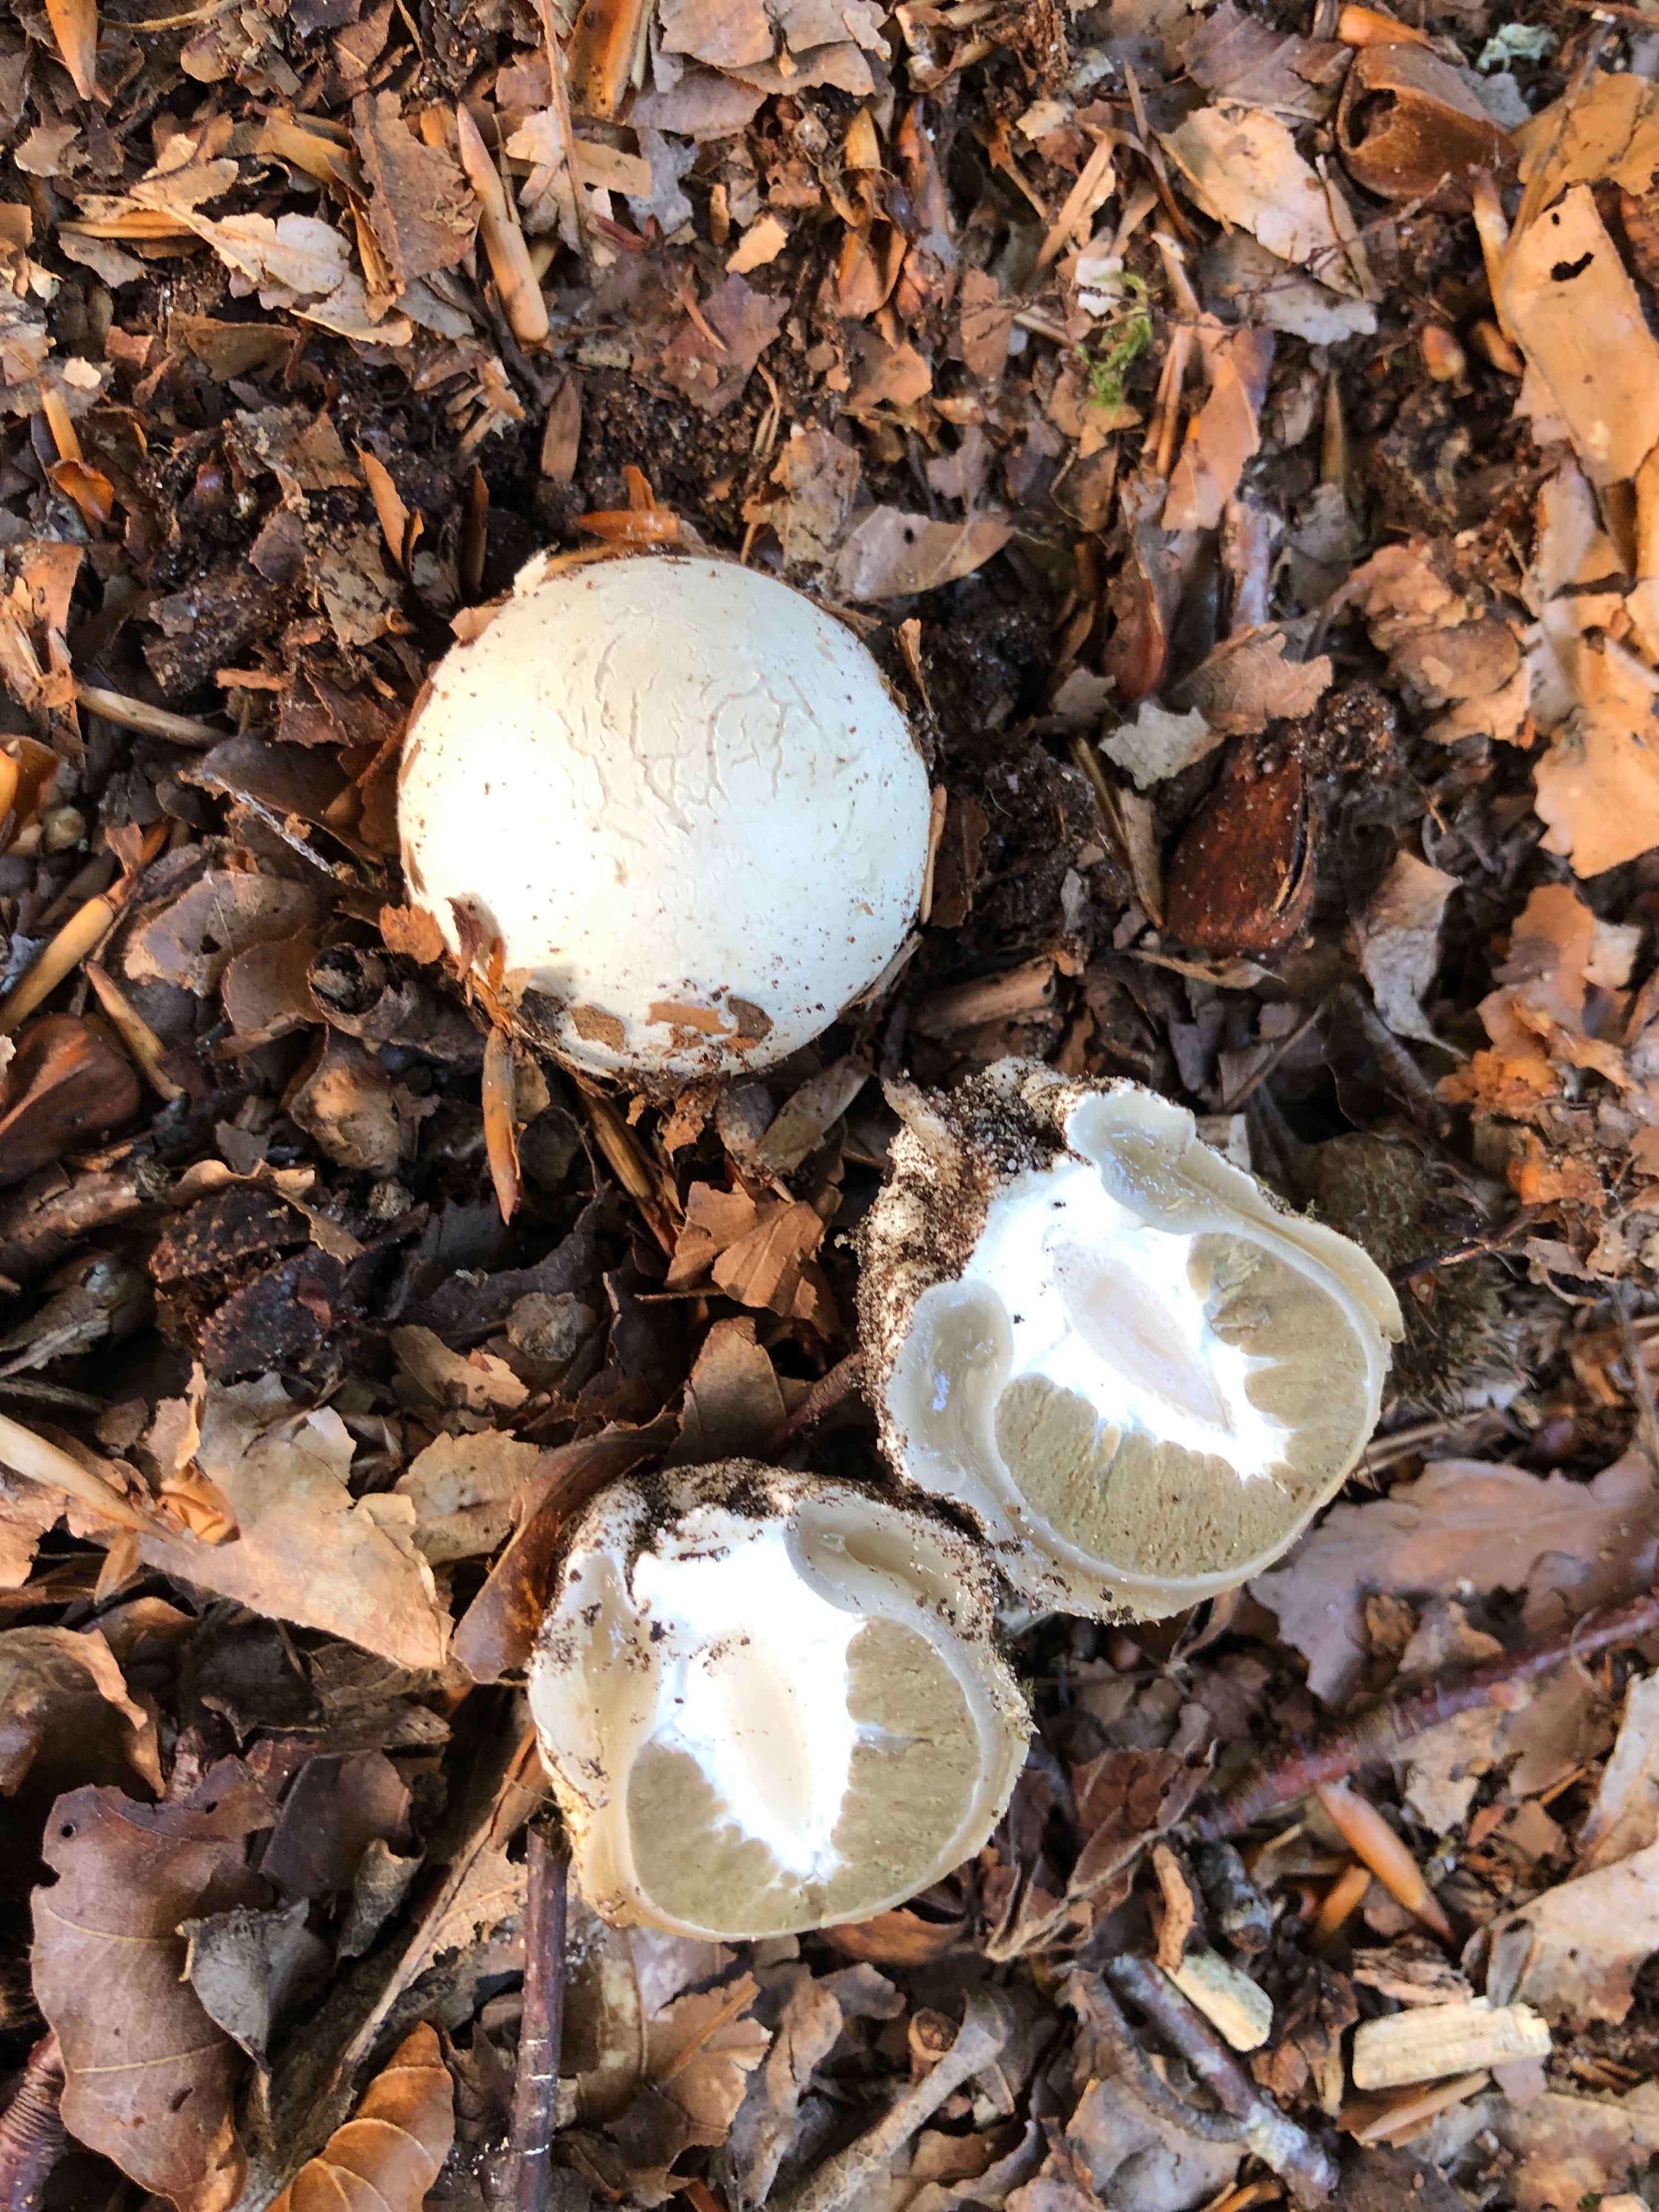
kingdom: Fungi
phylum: Basidiomycota
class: Agaricomycetes
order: Phallales
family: Phallaceae
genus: Phallus
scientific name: Phallus impudicus
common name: almindelig stinksvamp
